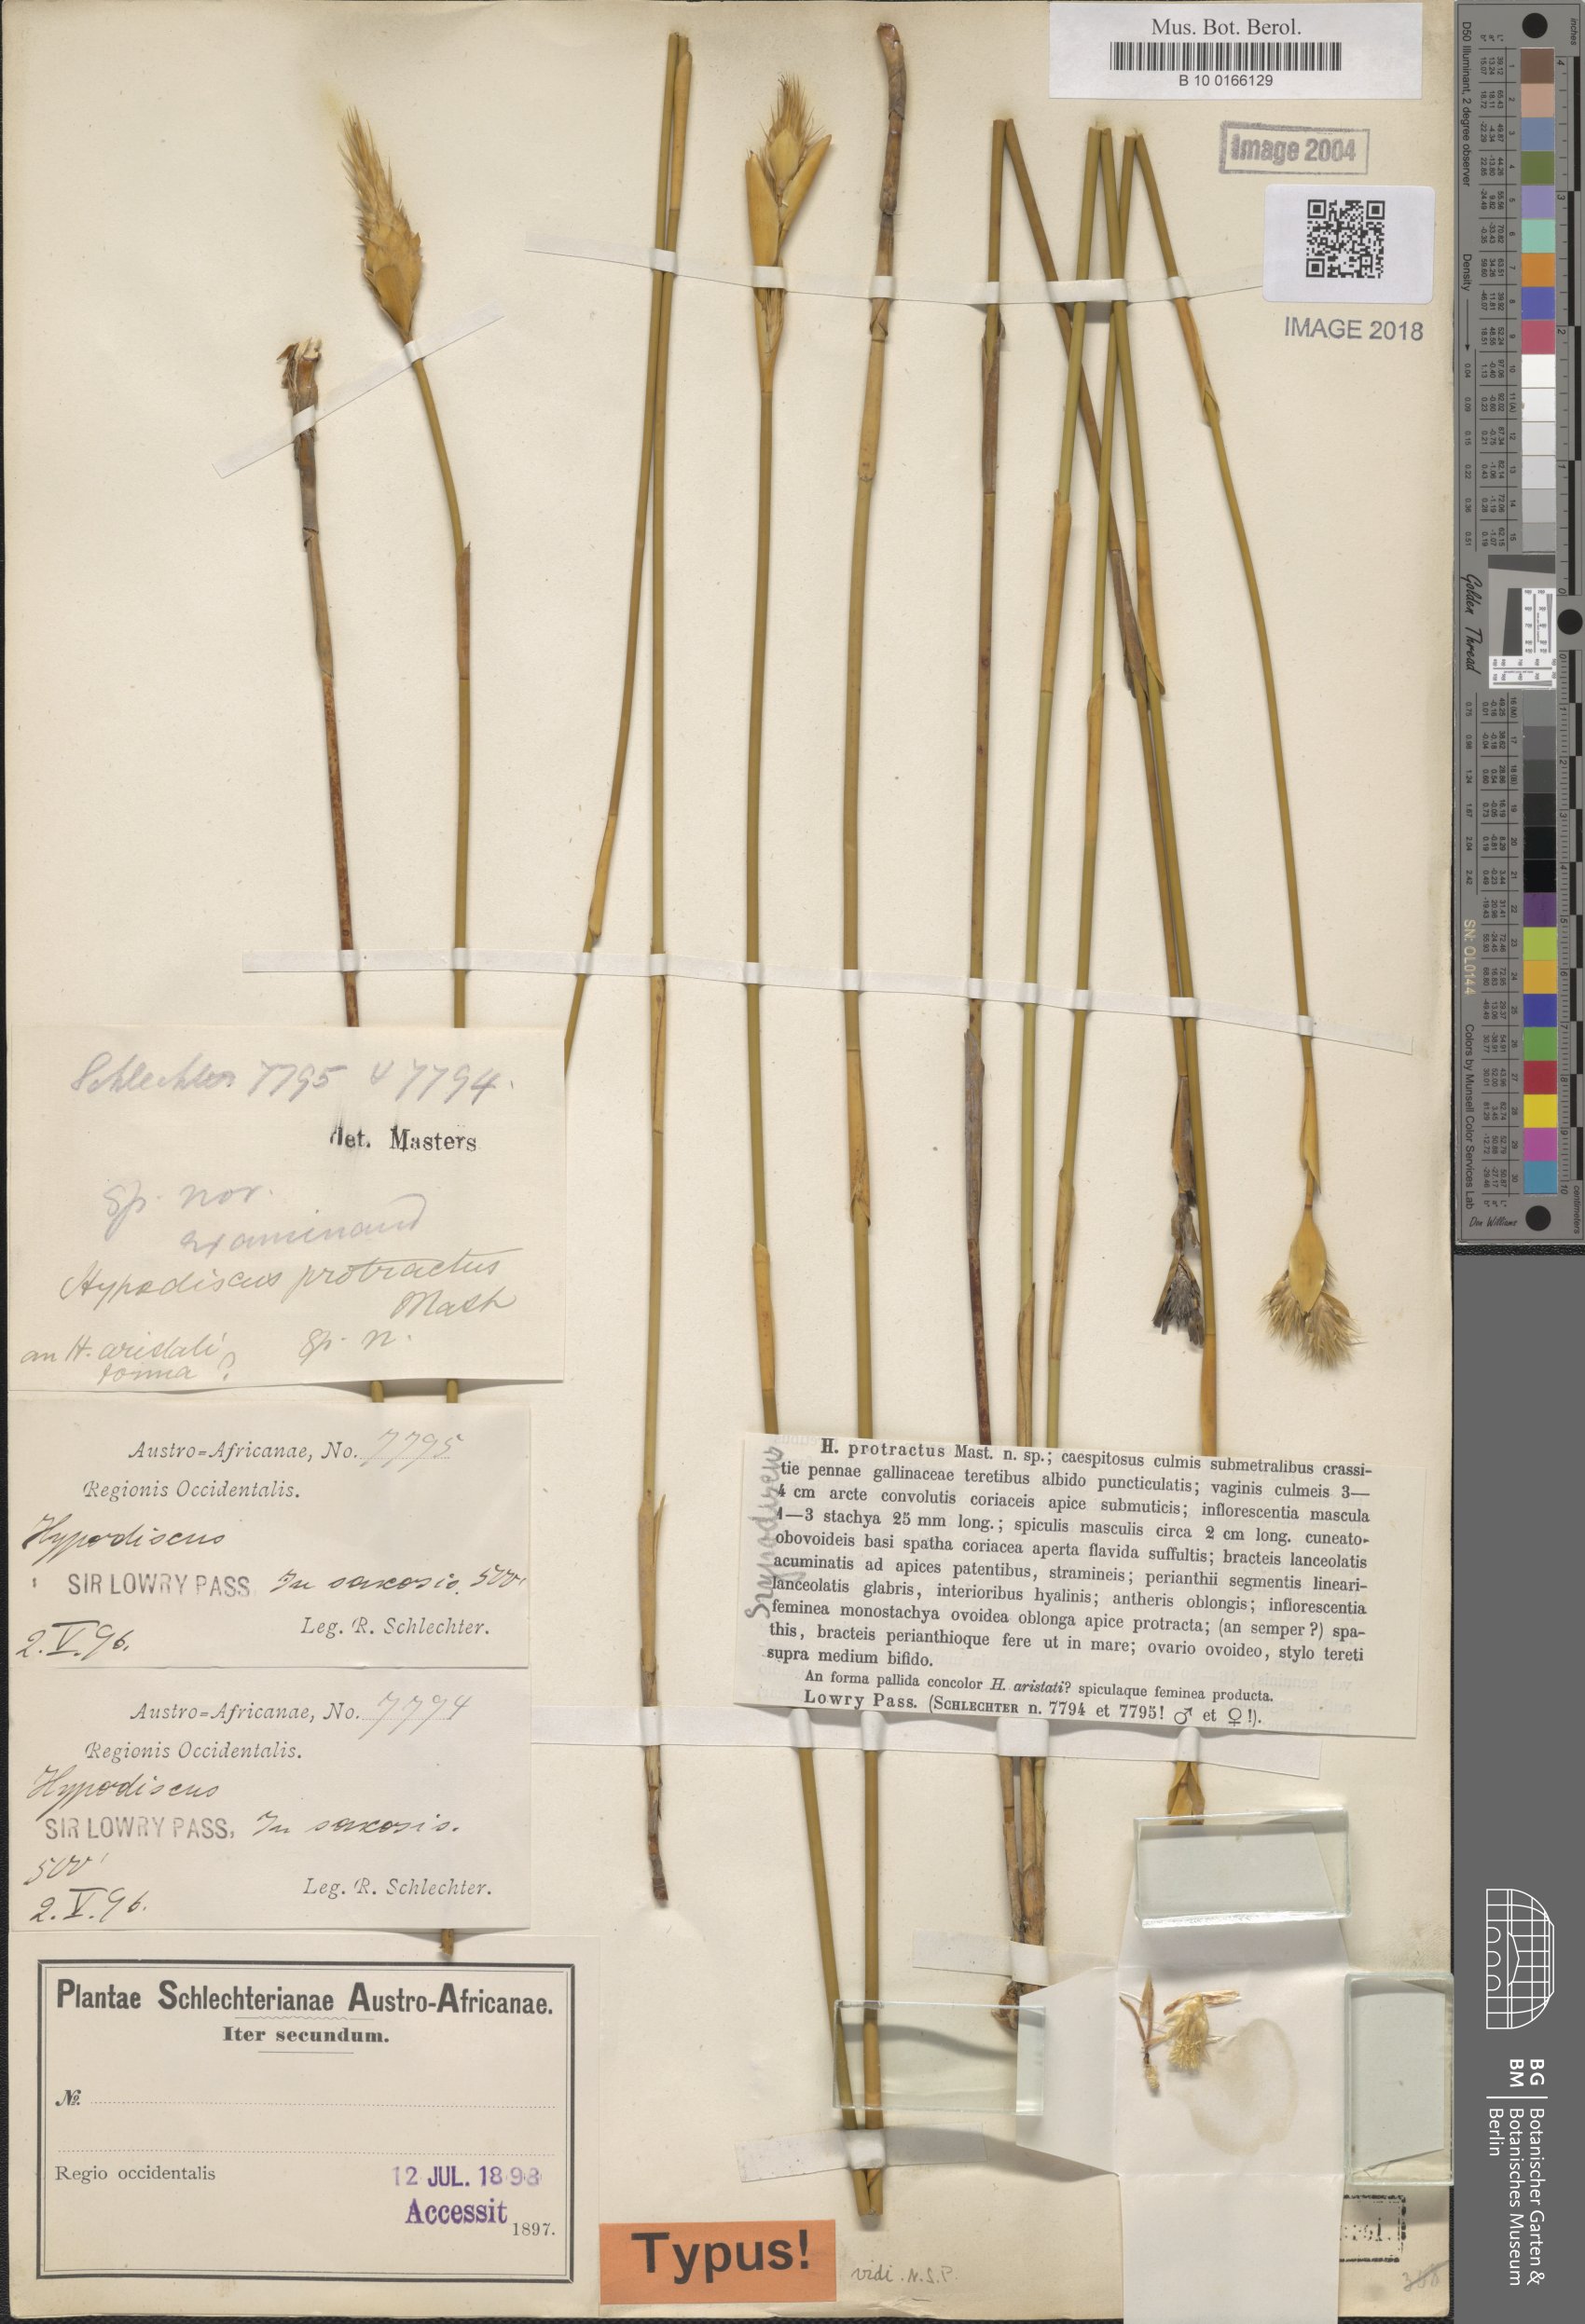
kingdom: Plantae
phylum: Tracheophyta
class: Liliopsida
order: Poales
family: Restionaceae
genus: Hypodiscus
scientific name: Hypodiscus aristatus
